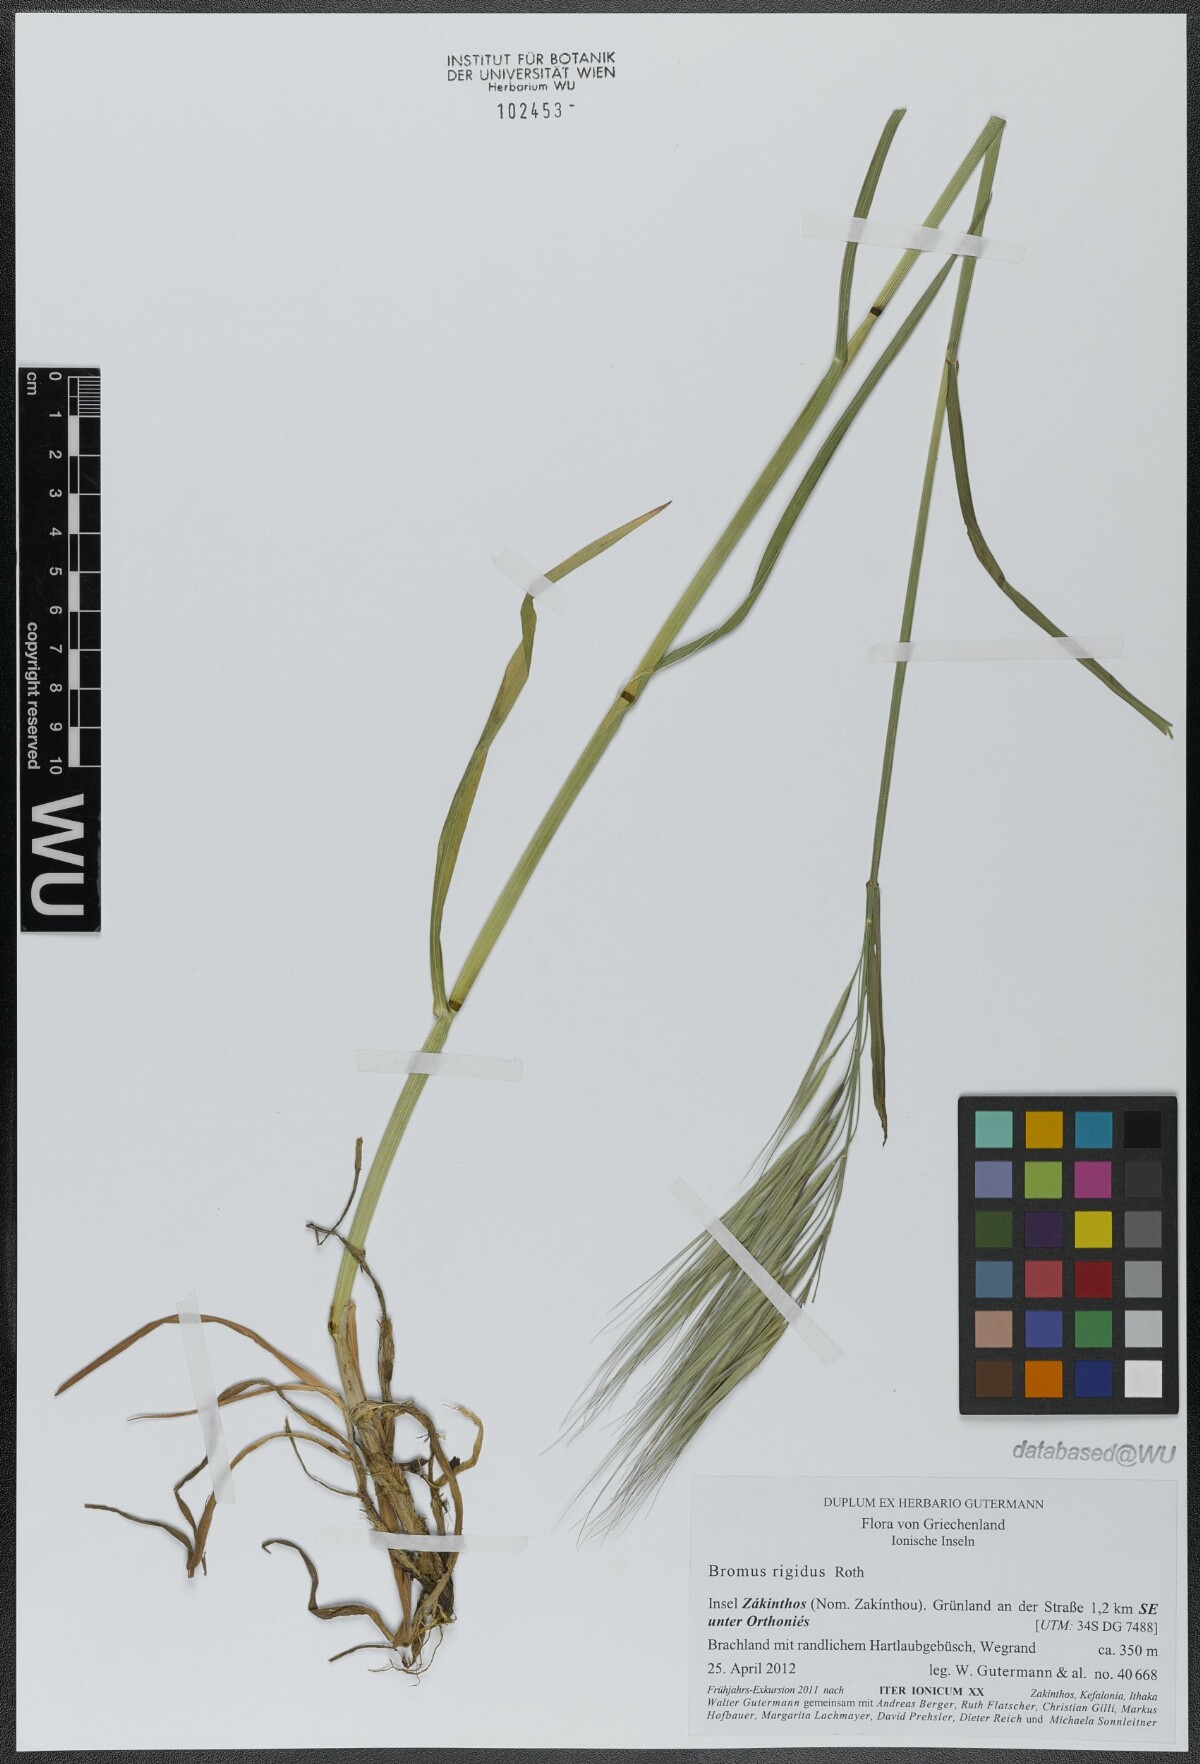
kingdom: Plantae
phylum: Tracheophyta
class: Liliopsida
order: Poales
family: Poaceae
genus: Bromus
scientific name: Bromus rigidus
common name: Ripgut brome
